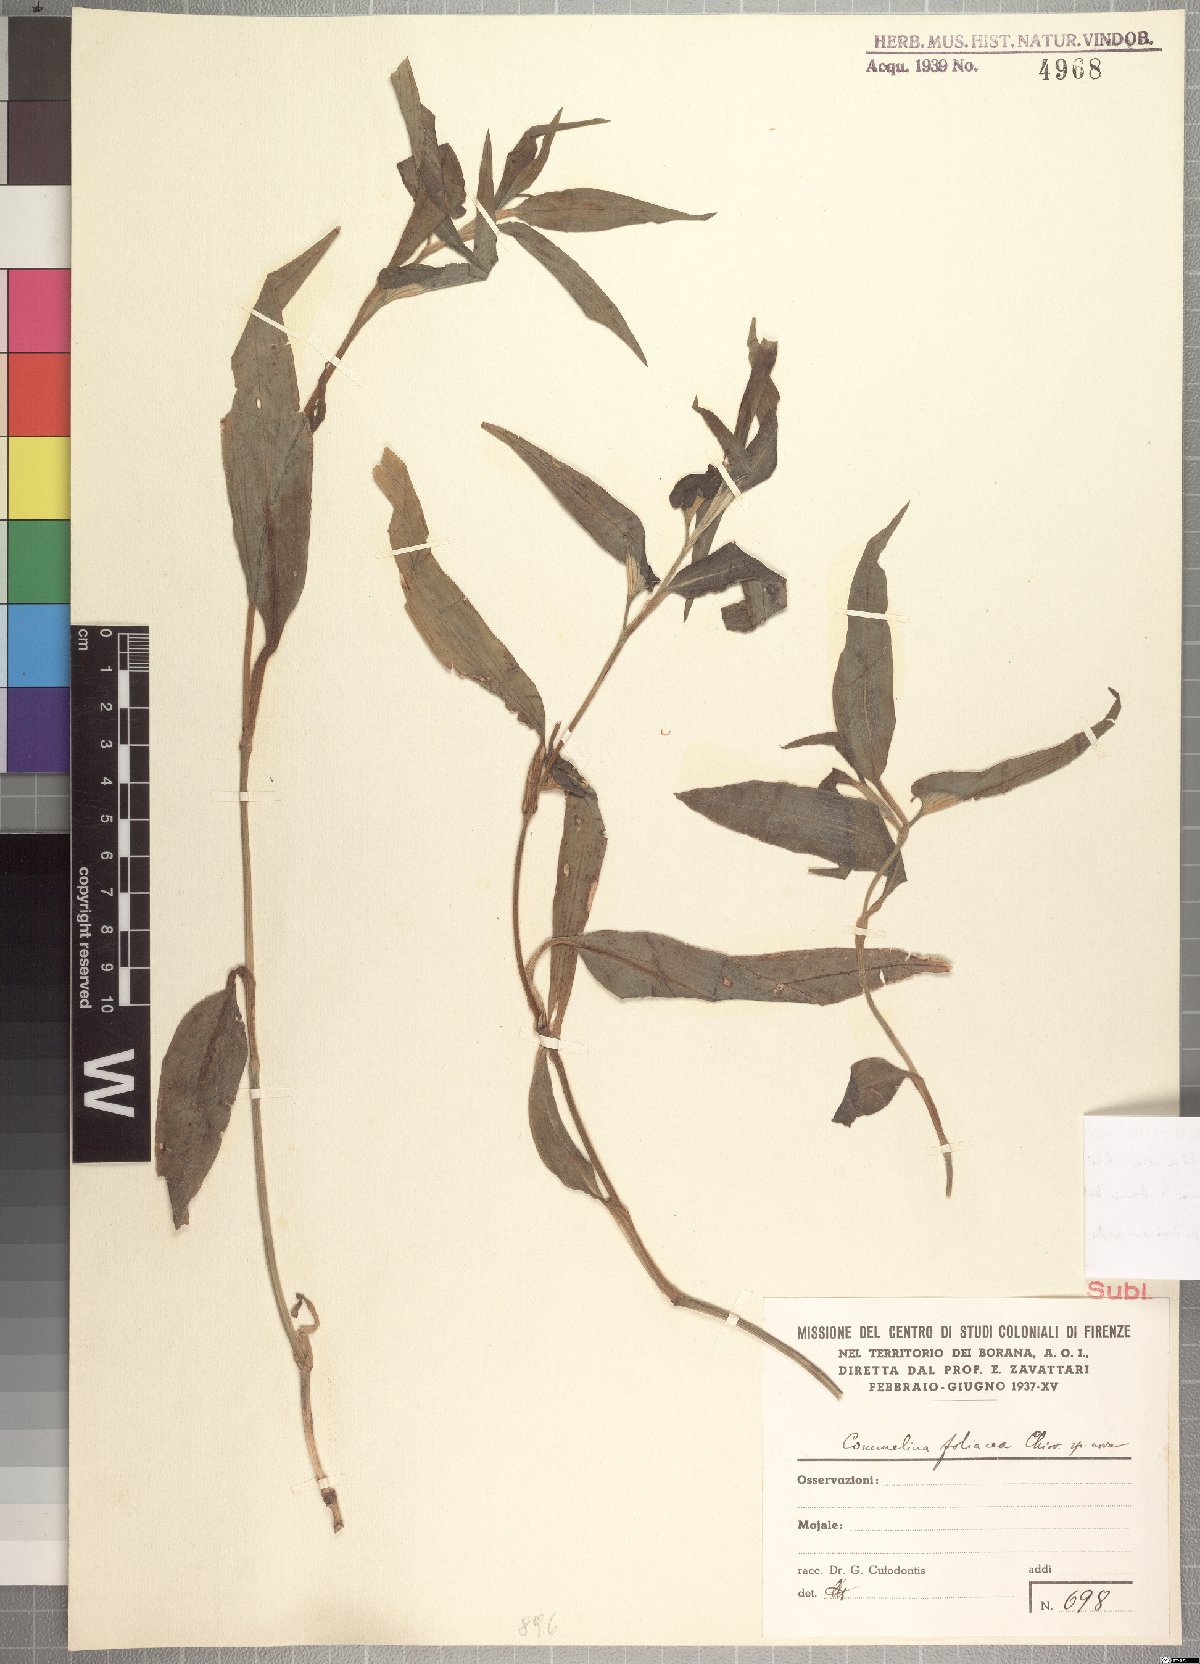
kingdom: Plantae
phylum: Tracheophyta
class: Liliopsida
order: Commelinales
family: Commelinaceae
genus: Commelina
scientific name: Commelina foliacea
